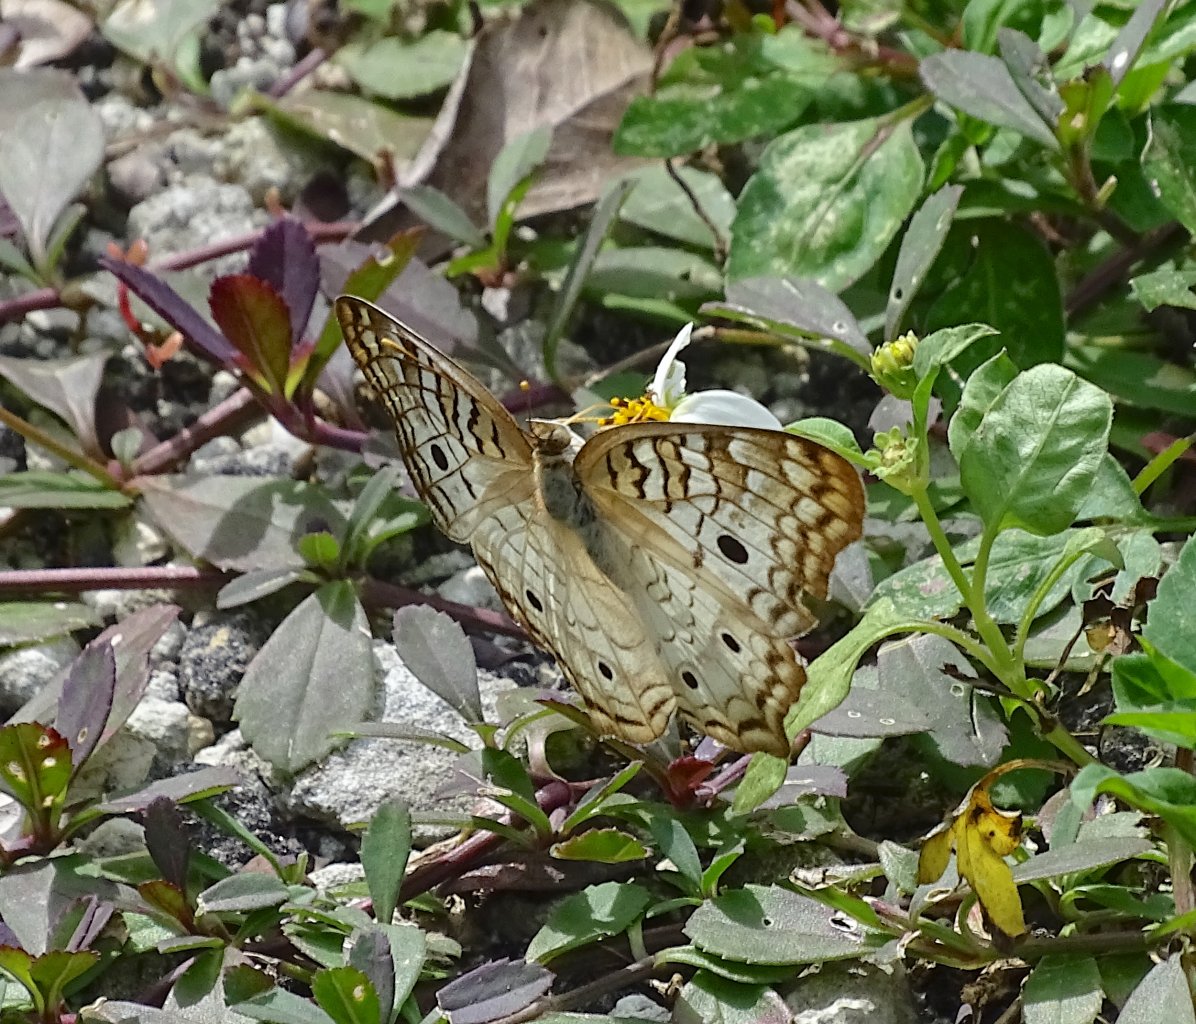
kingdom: Animalia
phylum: Arthropoda
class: Insecta
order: Lepidoptera
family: Nymphalidae
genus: Anartia
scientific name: Anartia jatrophae
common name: White Peacock
